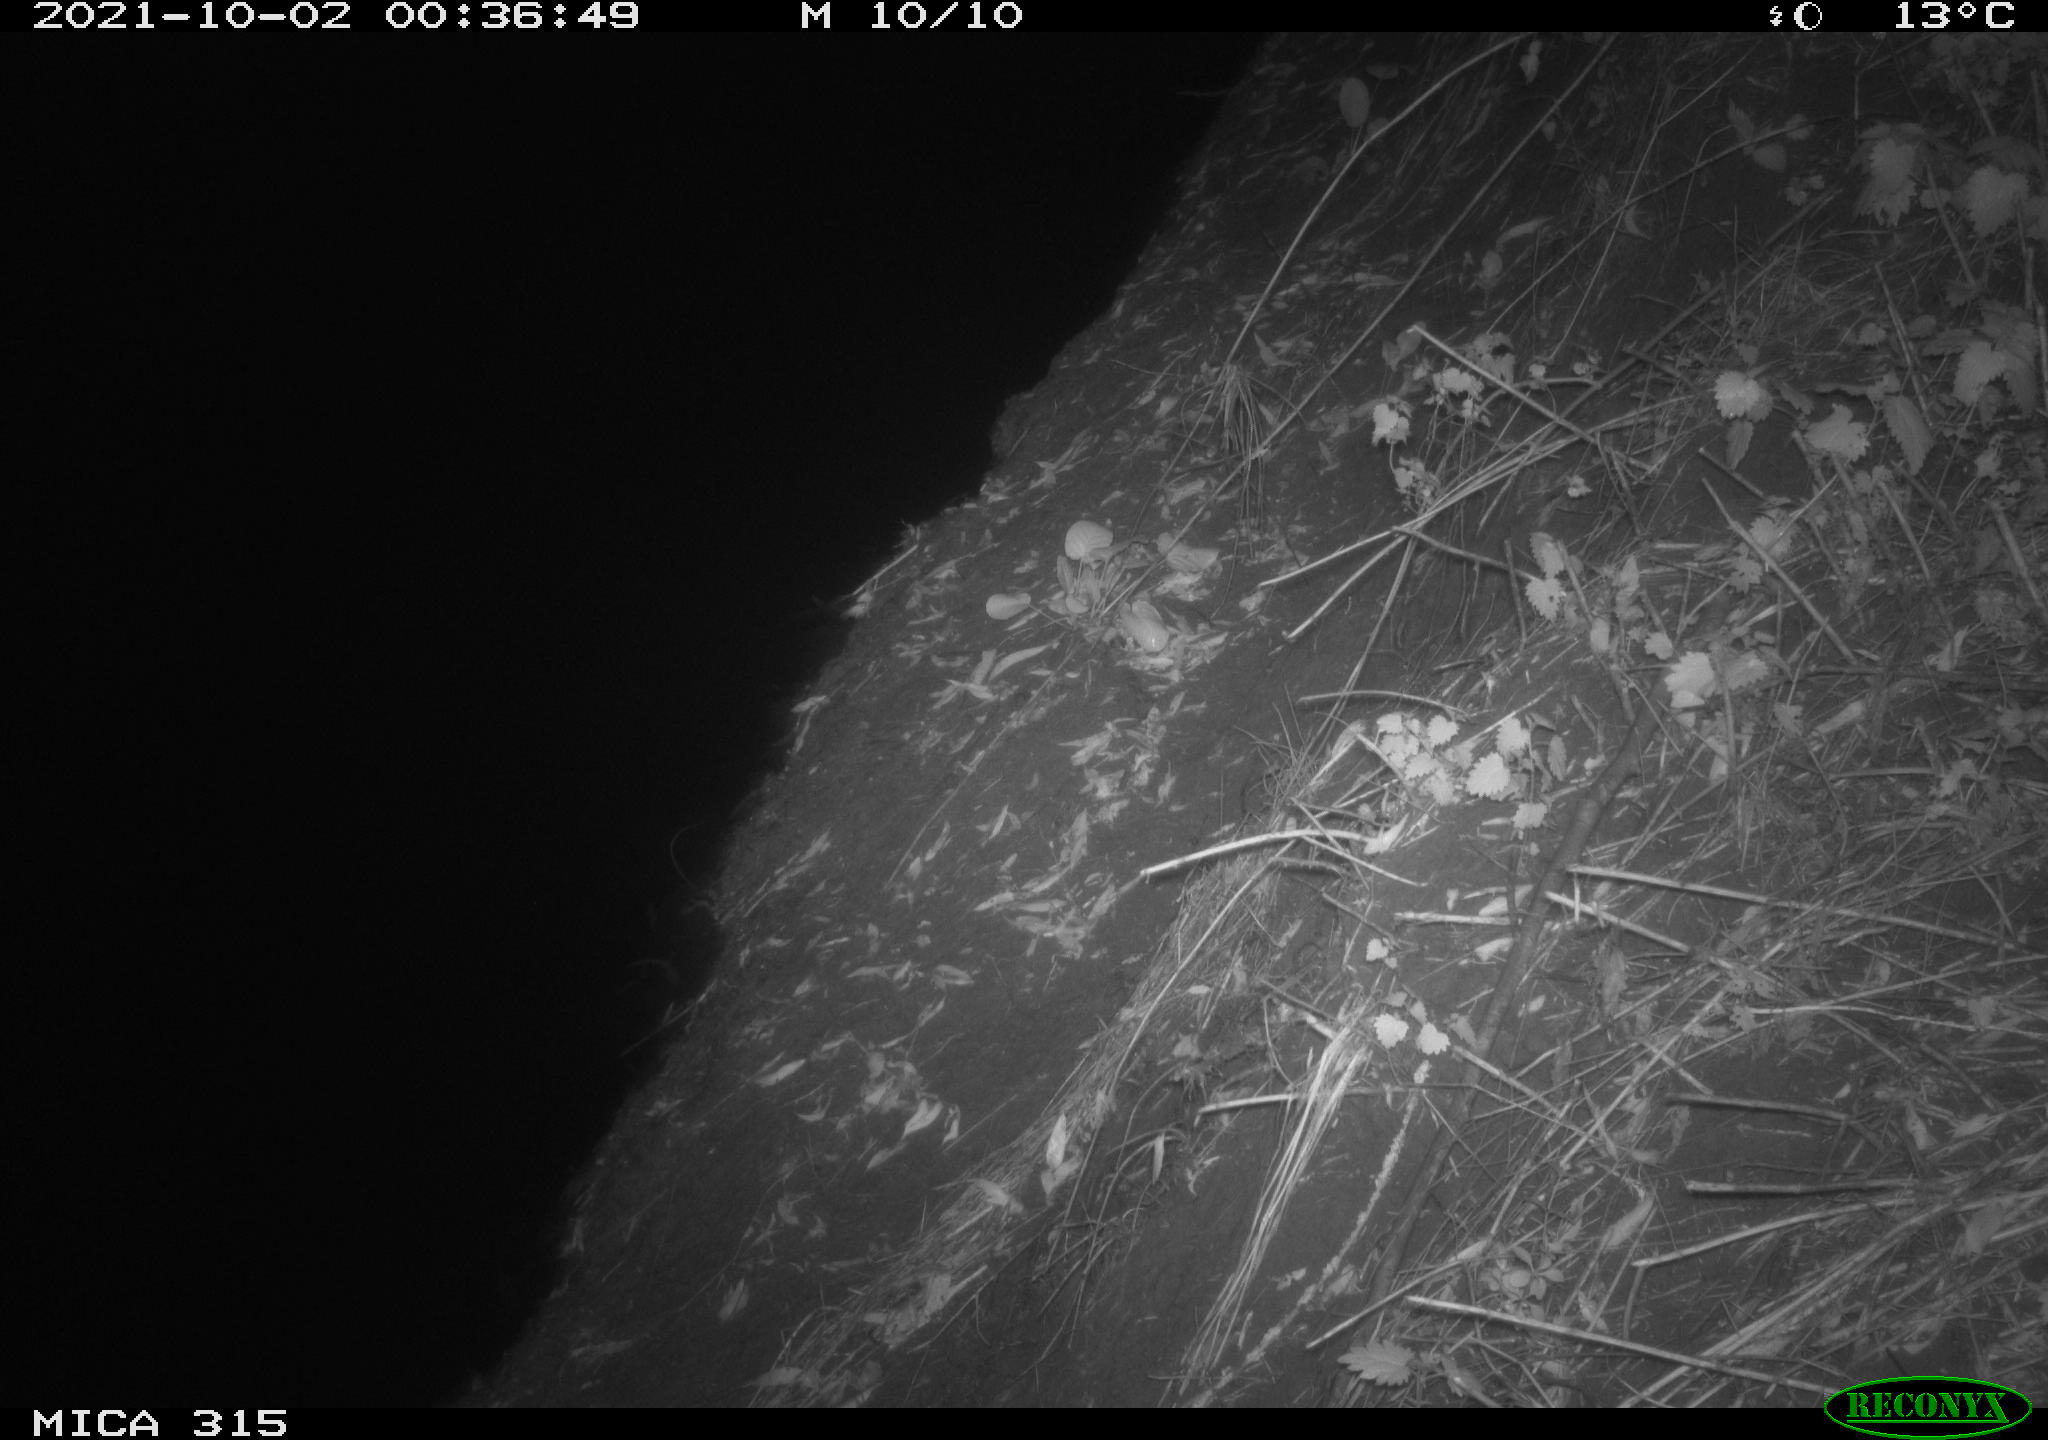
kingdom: Animalia
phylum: Chordata
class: Mammalia
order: Rodentia
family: Muridae
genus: Rattus
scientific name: Rattus norvegicus
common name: Brown rat
